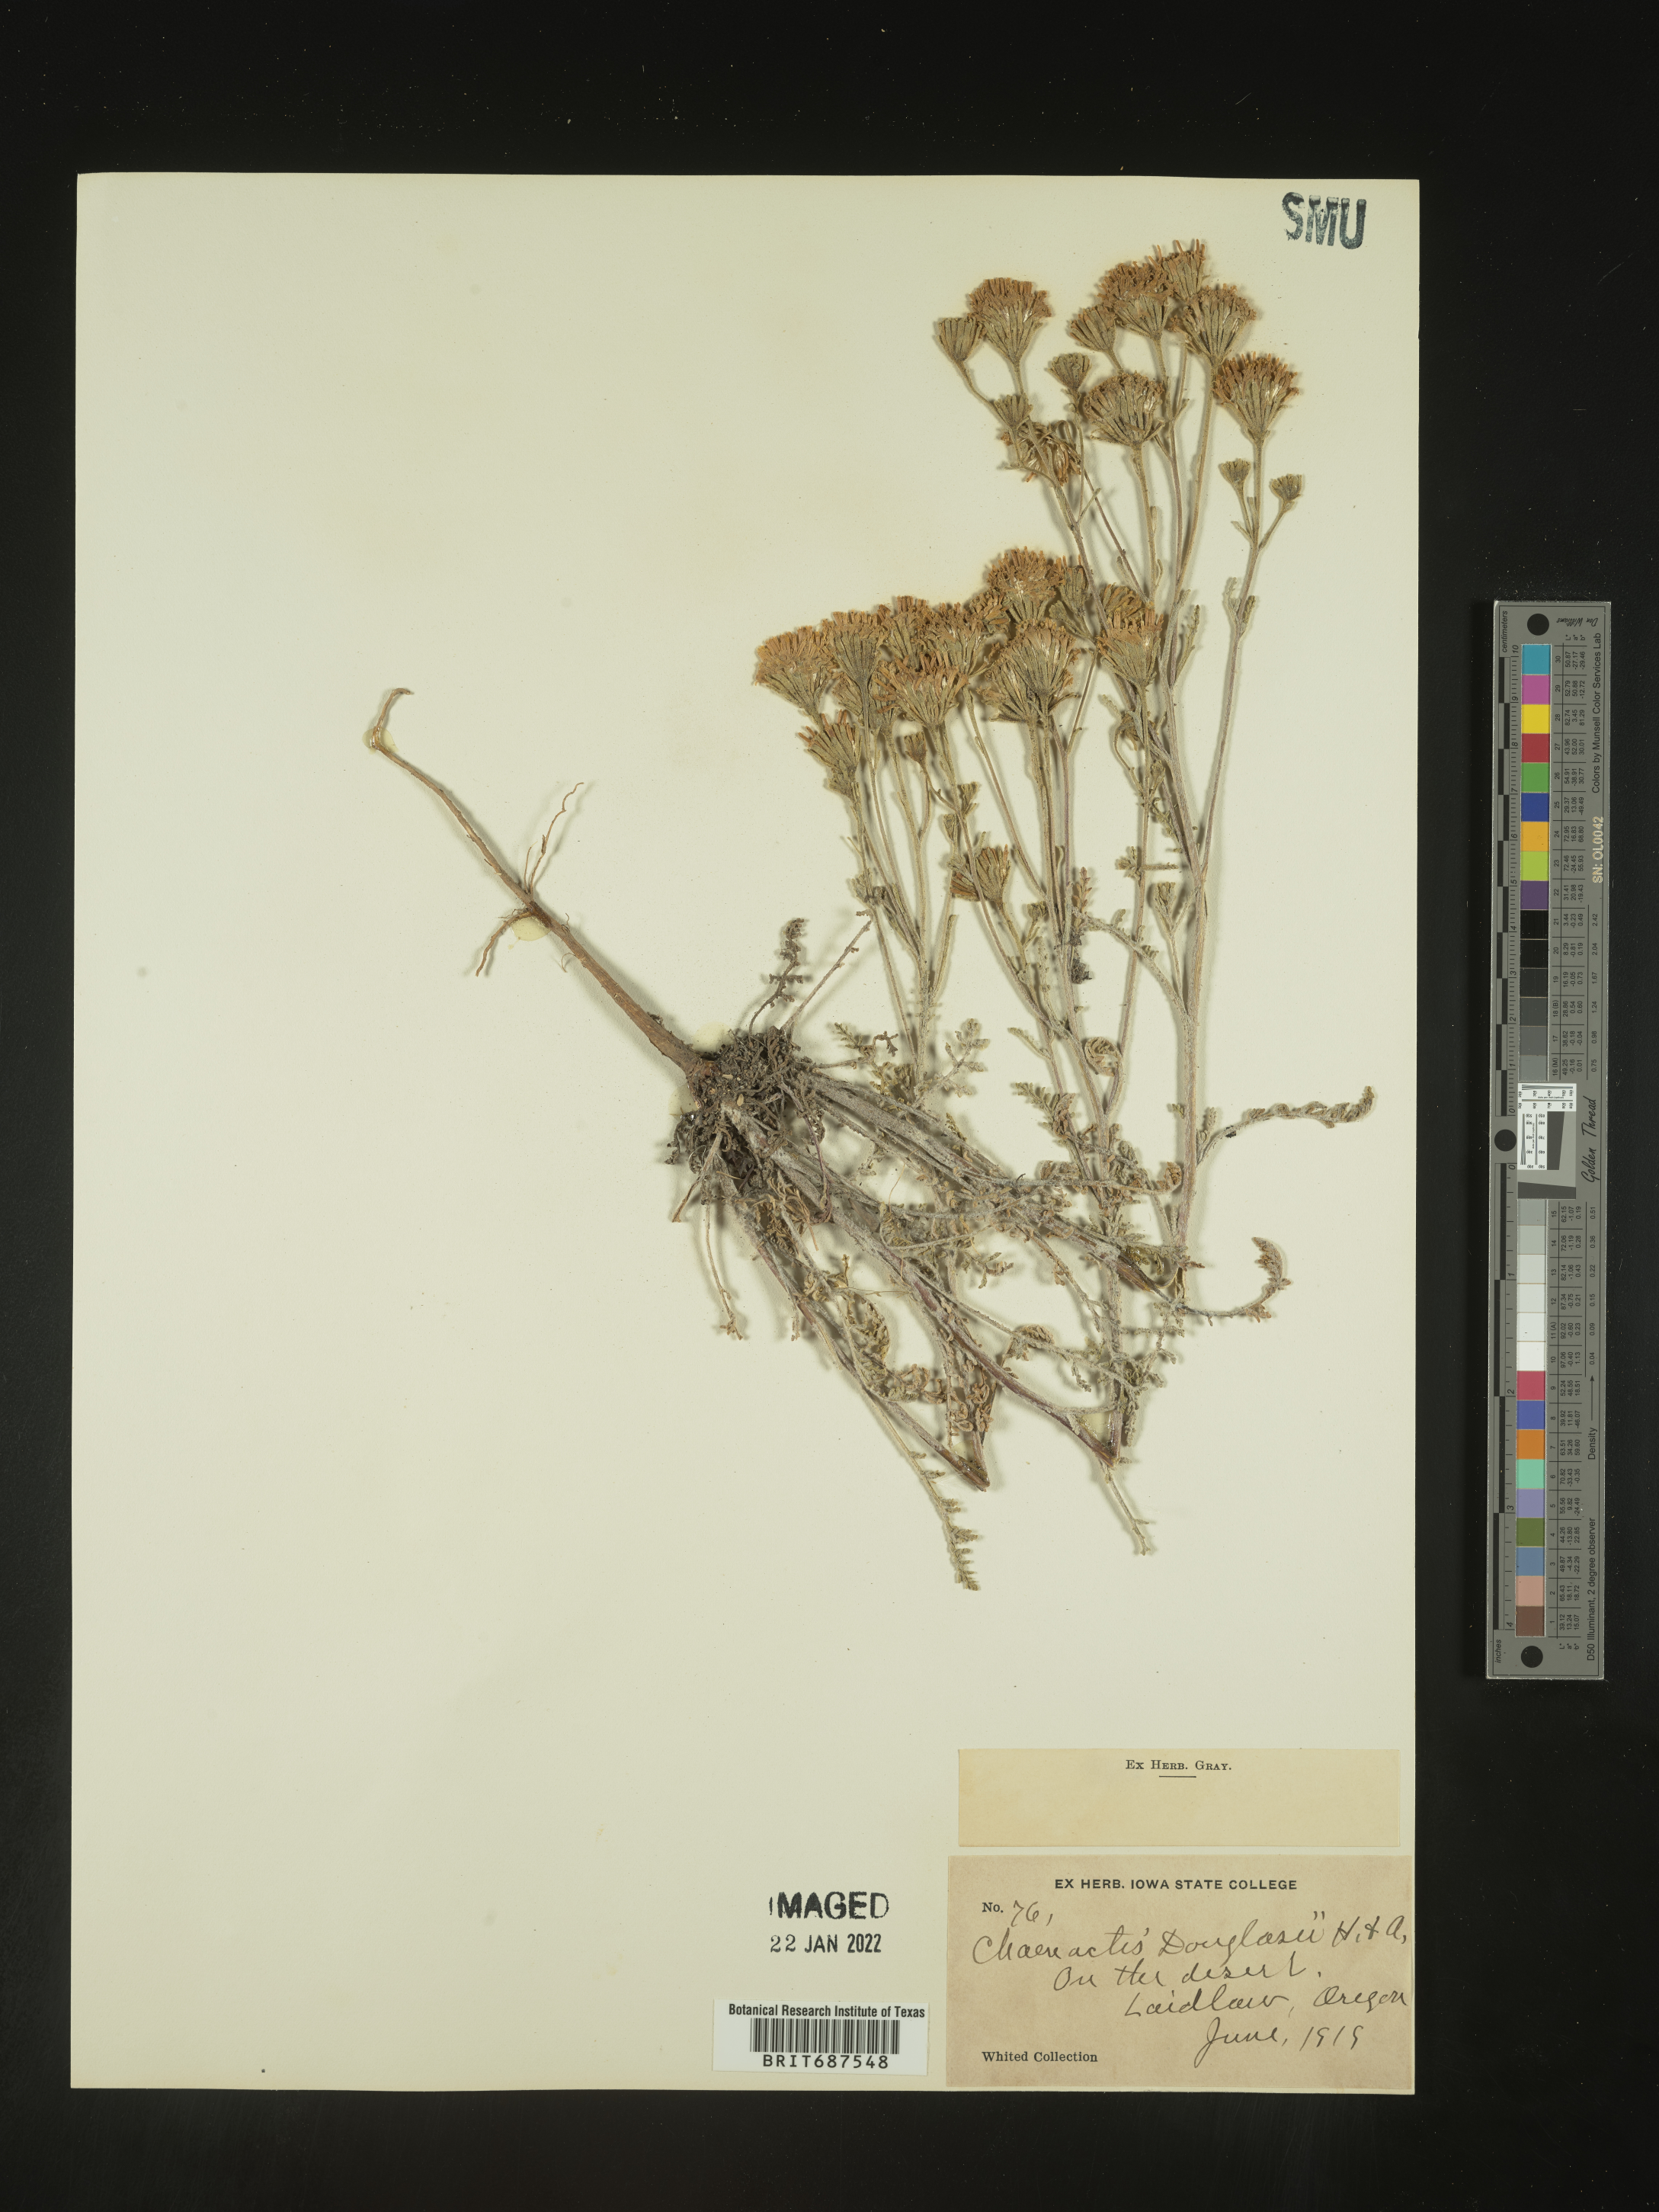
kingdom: Plantae
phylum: Tracheophyta
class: Magnoliopsida
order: Asterales
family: Asteraceae
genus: Chaenactis
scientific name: Chaenactis douglasii
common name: Hoary pincushion
